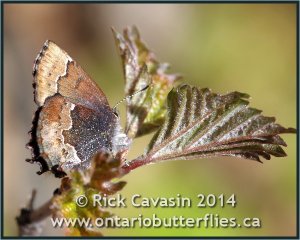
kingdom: Animalia
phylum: Arthropoda
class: Insecta
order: Lepidoptera
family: Lycaenidae
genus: Incisalia
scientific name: Incisalia henrici
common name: Henry's Elfin
